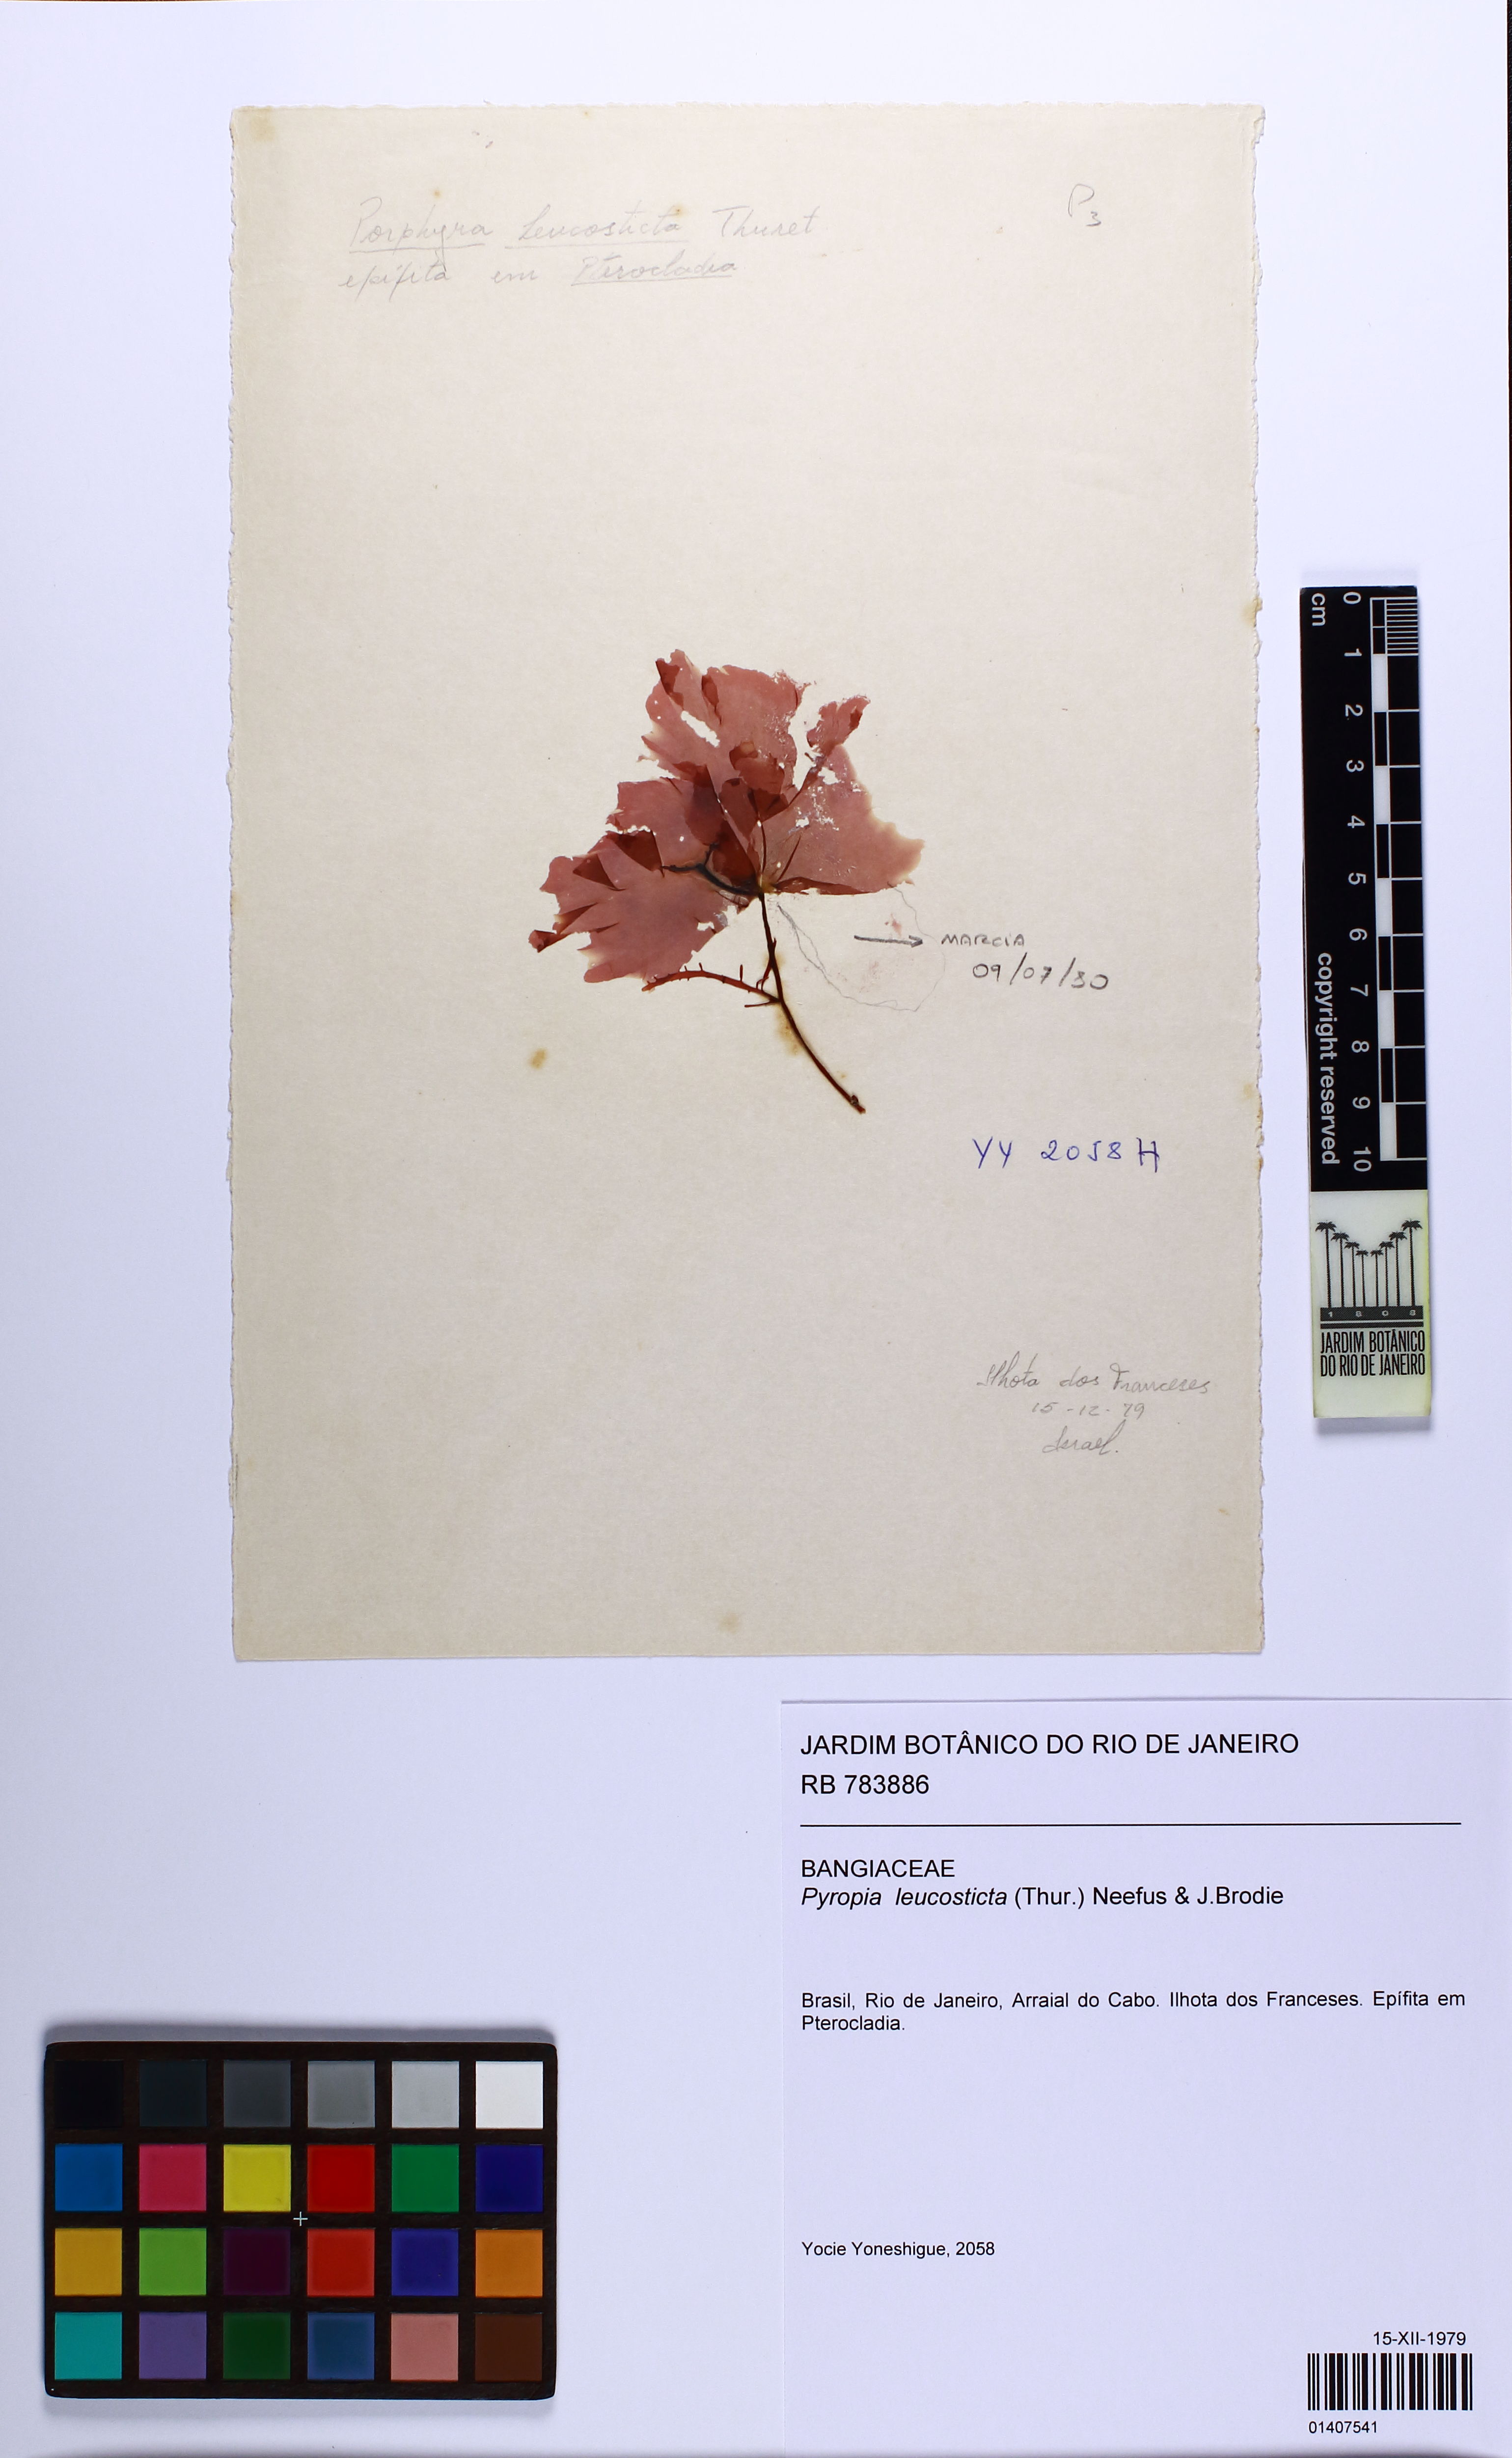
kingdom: Plantae
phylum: Rhodophyta
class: Bangiophyceae
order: Bangiales
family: Bangiaceae
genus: Neopyropia
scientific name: Neopyropia spec
